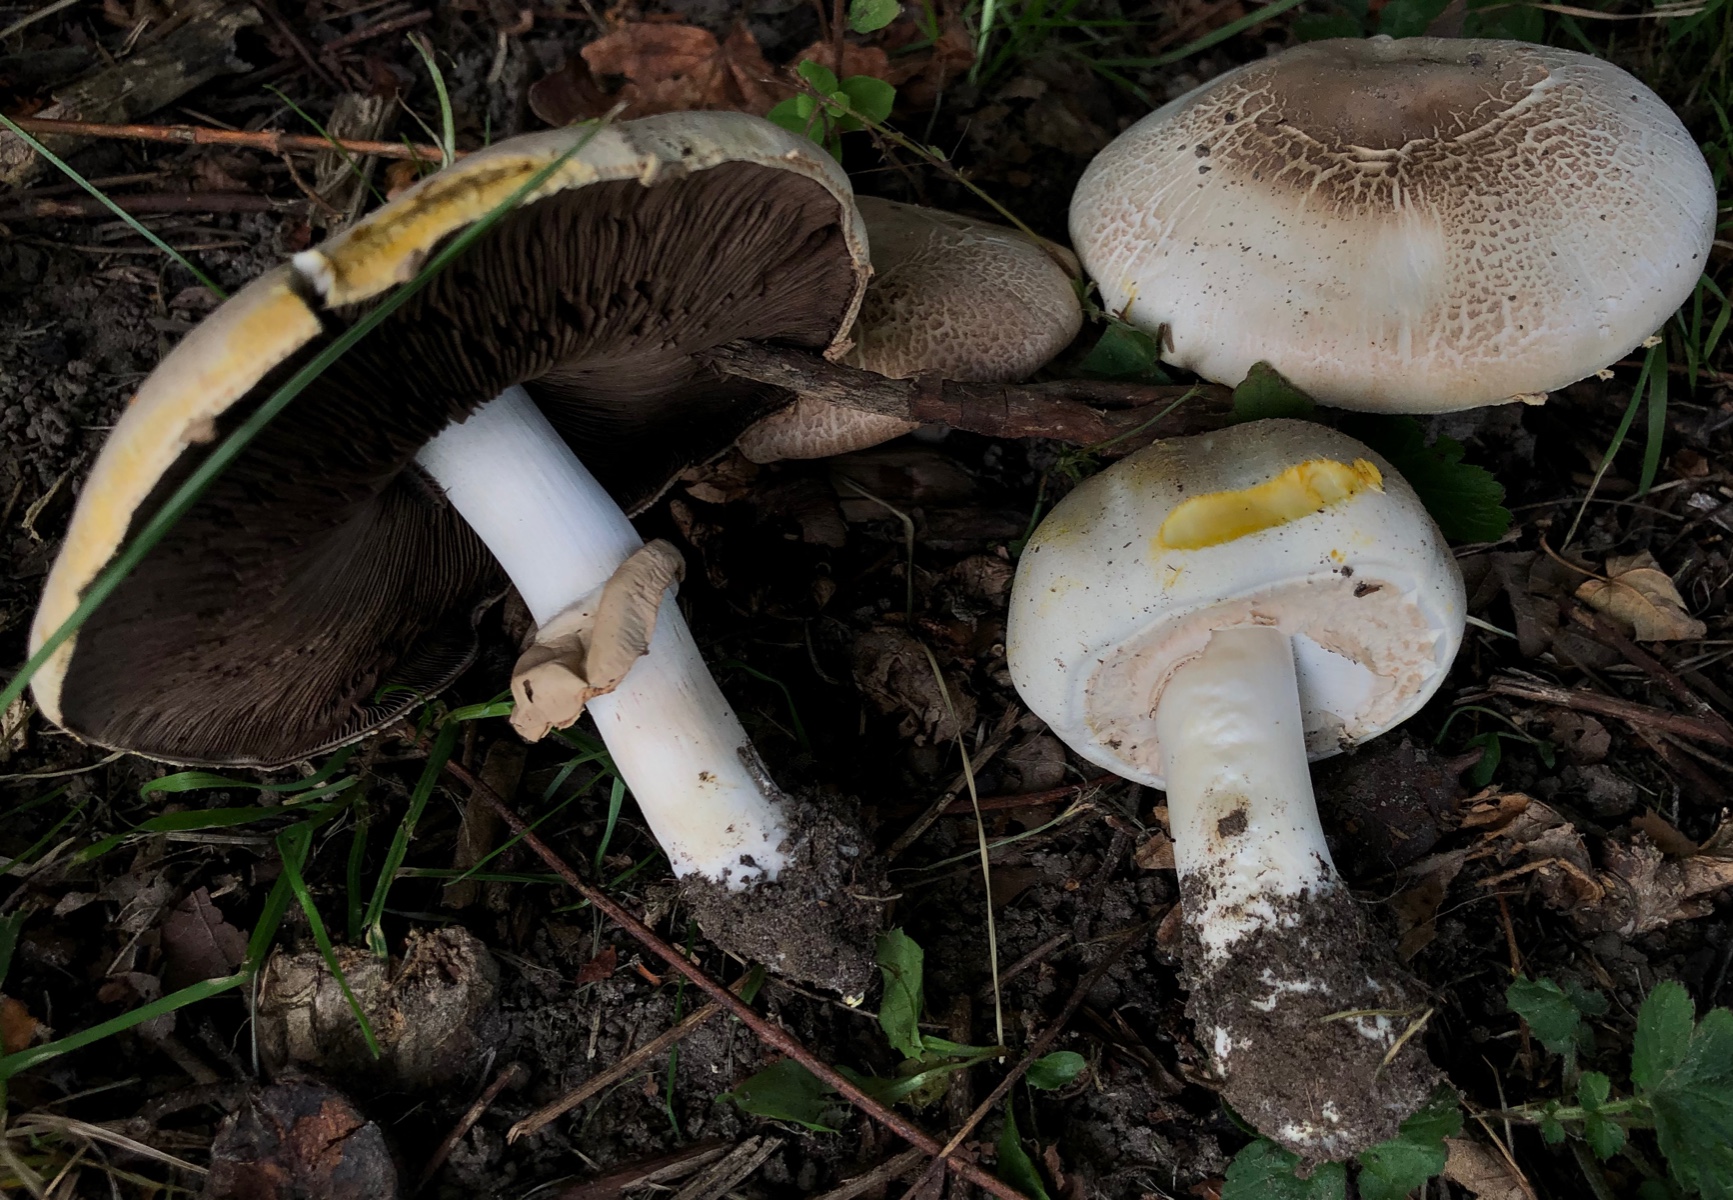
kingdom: Fungi
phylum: Basidiomycota
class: Agaricomycetes
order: Agaricales
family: Agaricaceae
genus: Agaricus
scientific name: Agaricus xanthodermus
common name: karbol-champignon
